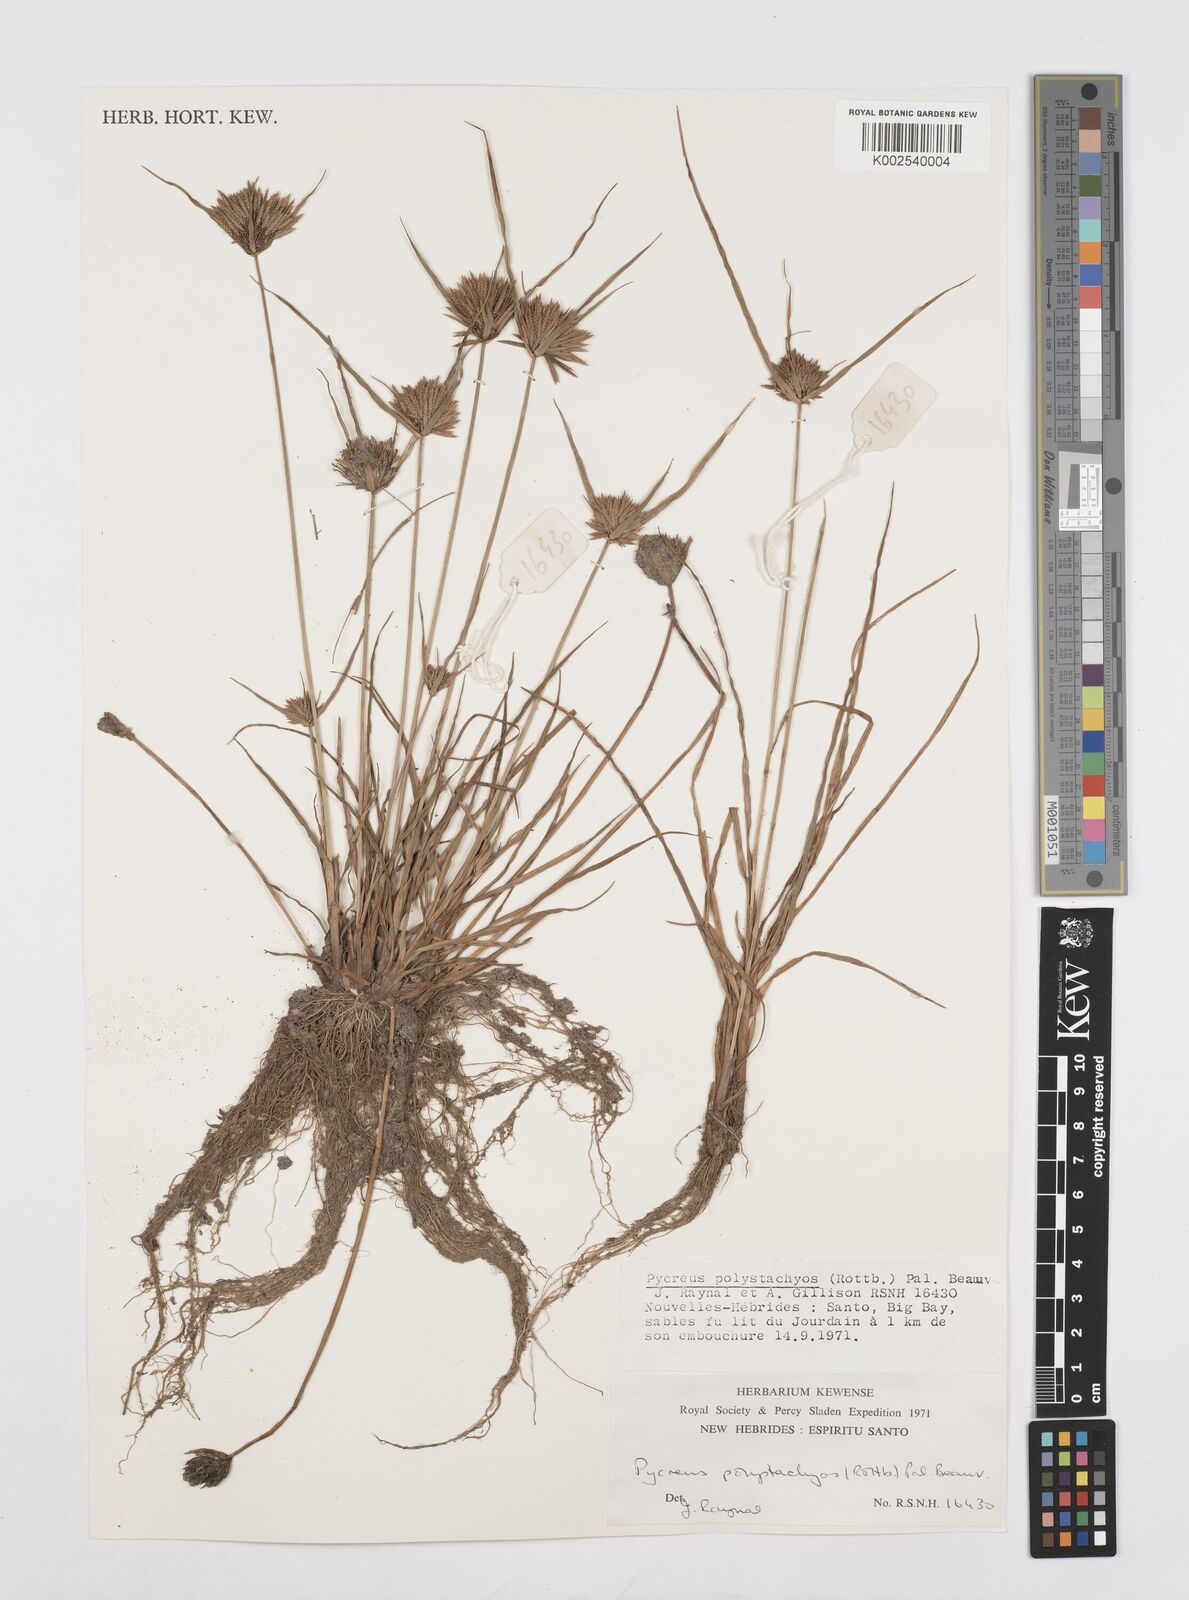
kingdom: Plantae
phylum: Tracheophyta
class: Liliopsida
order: Poales
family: Cyperaceae
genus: Cyperus
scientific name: Cyperus polystachyos
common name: Bunchy flat sedge
